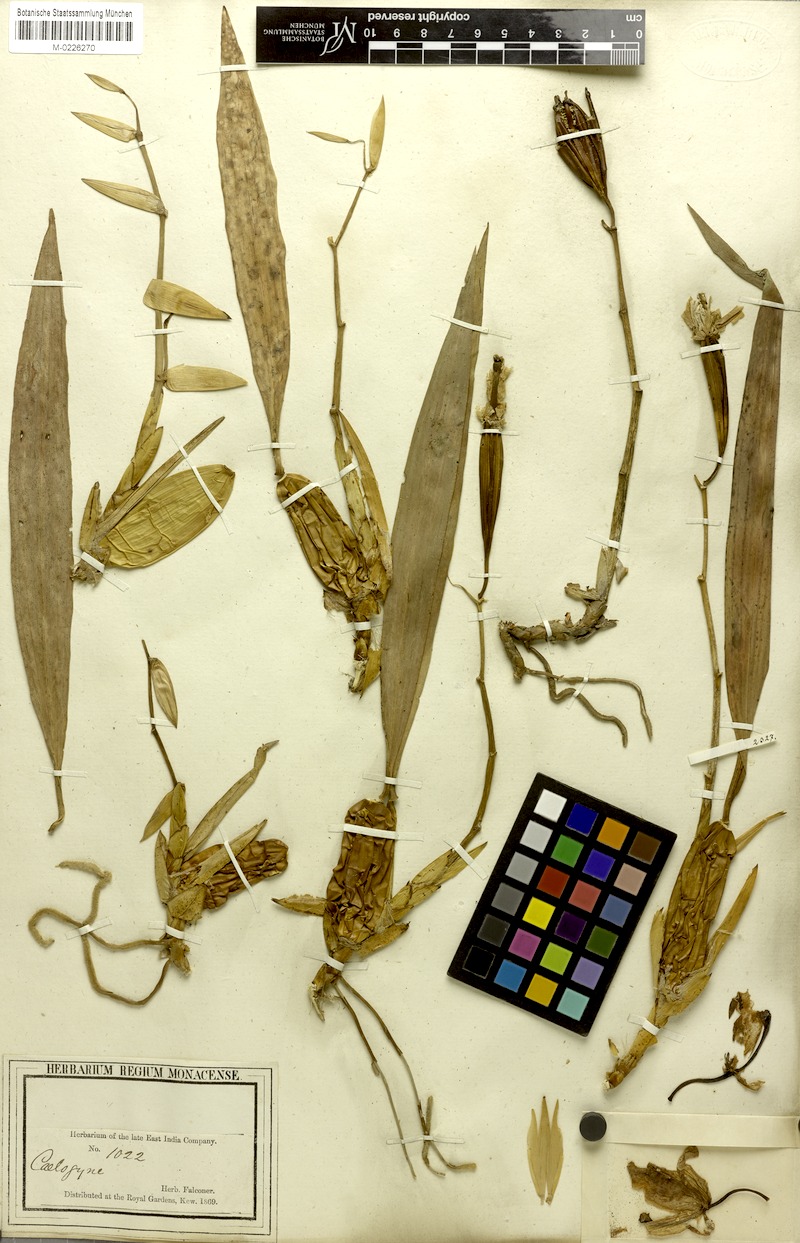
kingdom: Plantae
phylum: Tracheophyta
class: Liliopsida
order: Asparagales
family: Orchidaceae
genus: Coelogyne
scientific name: Coelogyne cristata
